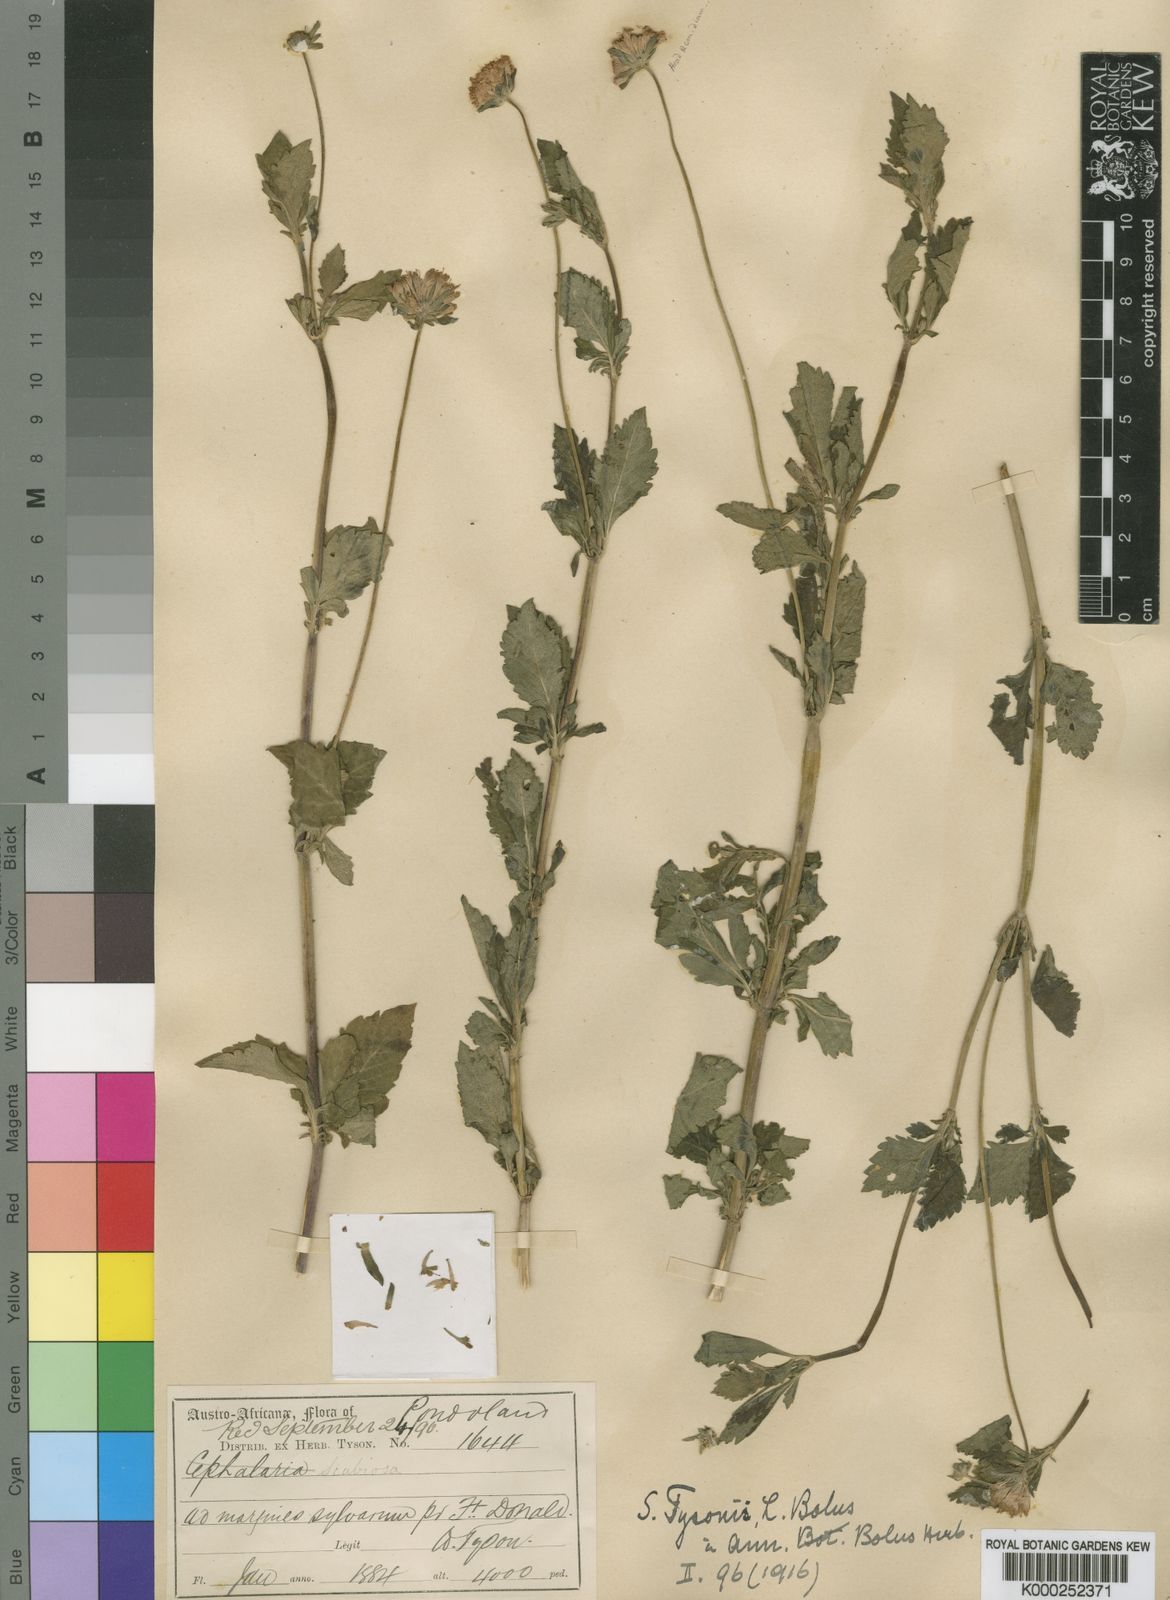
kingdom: Plantae
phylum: Tracheophyta
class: Magnoliopsida
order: Dipsacales
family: Caprifoliaceae
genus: Scabiosa
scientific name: Scabiosa tysonii
